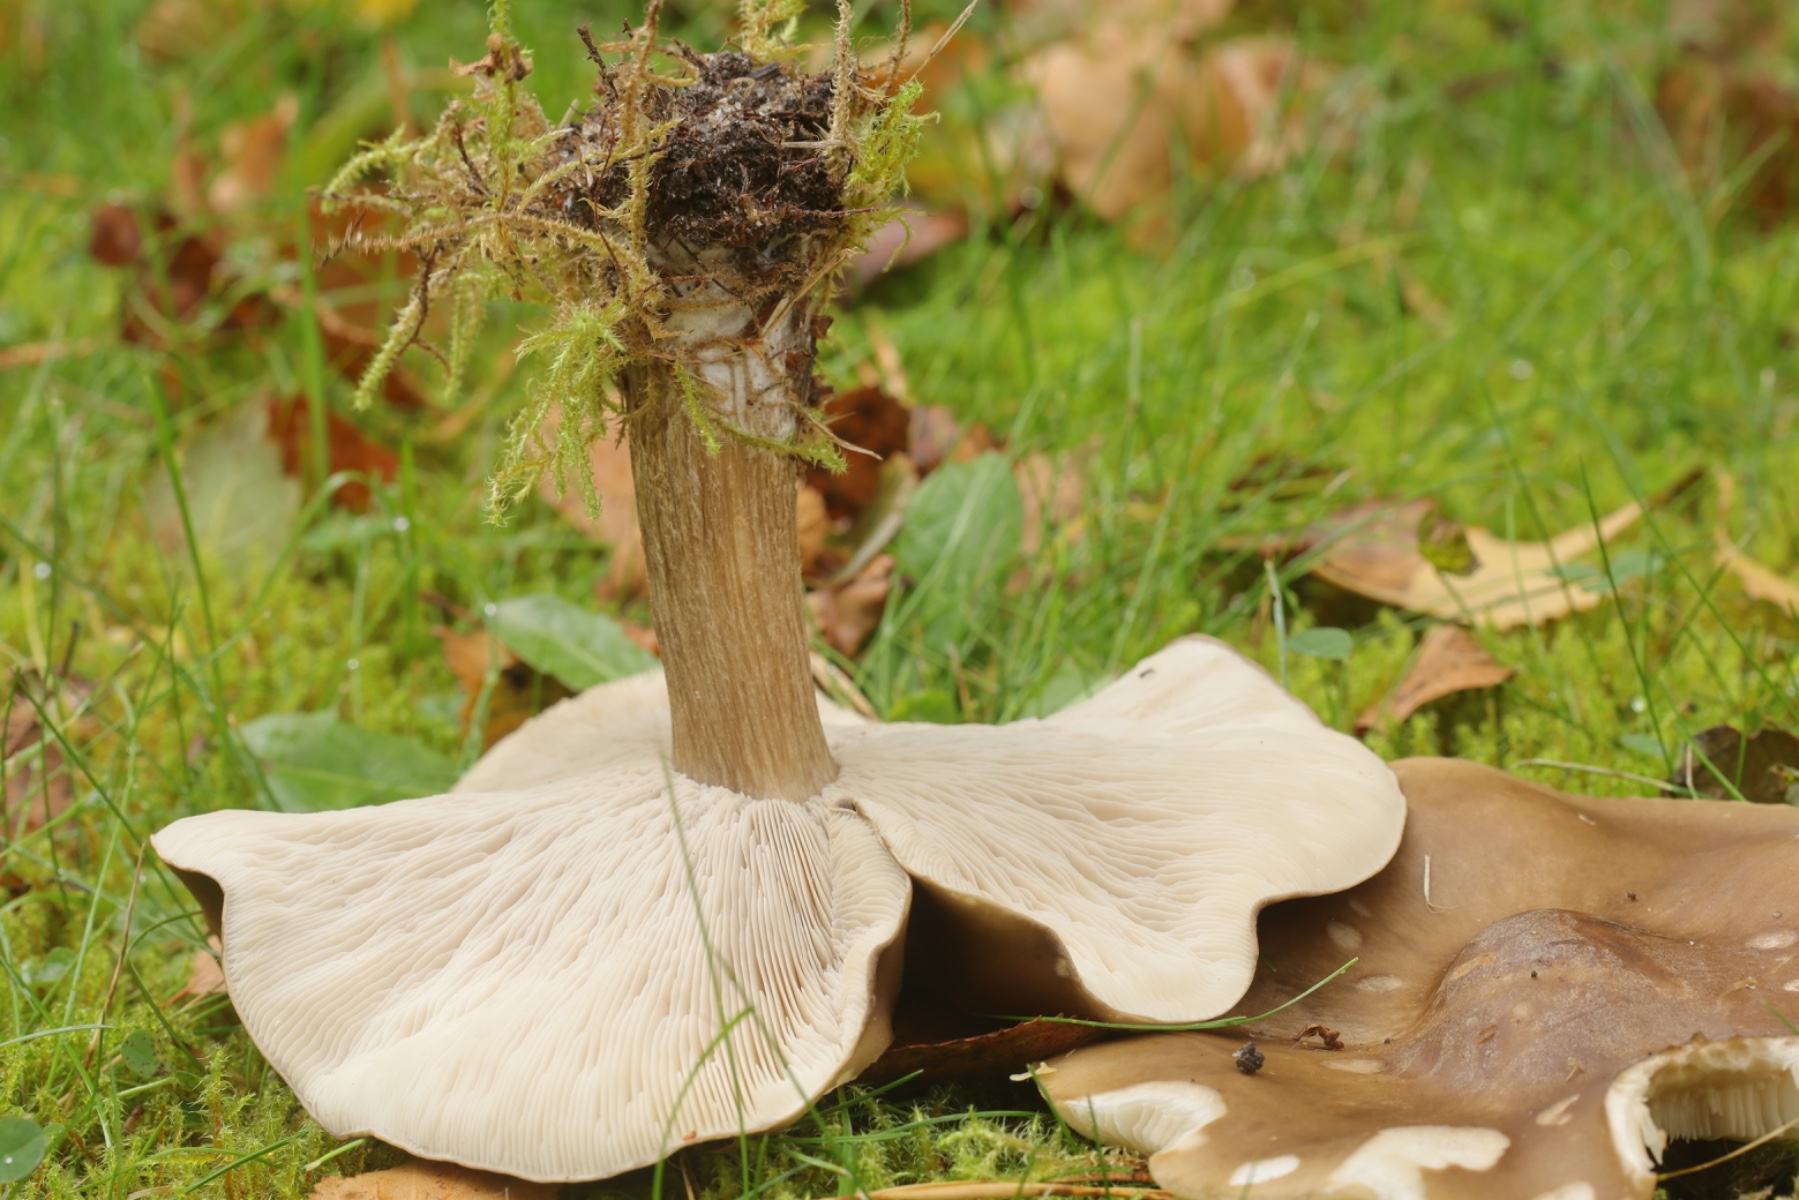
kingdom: Fungi
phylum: Basidiomycota
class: Agaricomycetes
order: Agaricales
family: Tricholomataceae
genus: Melanoleuca
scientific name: Melanoleuca
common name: munkehat
